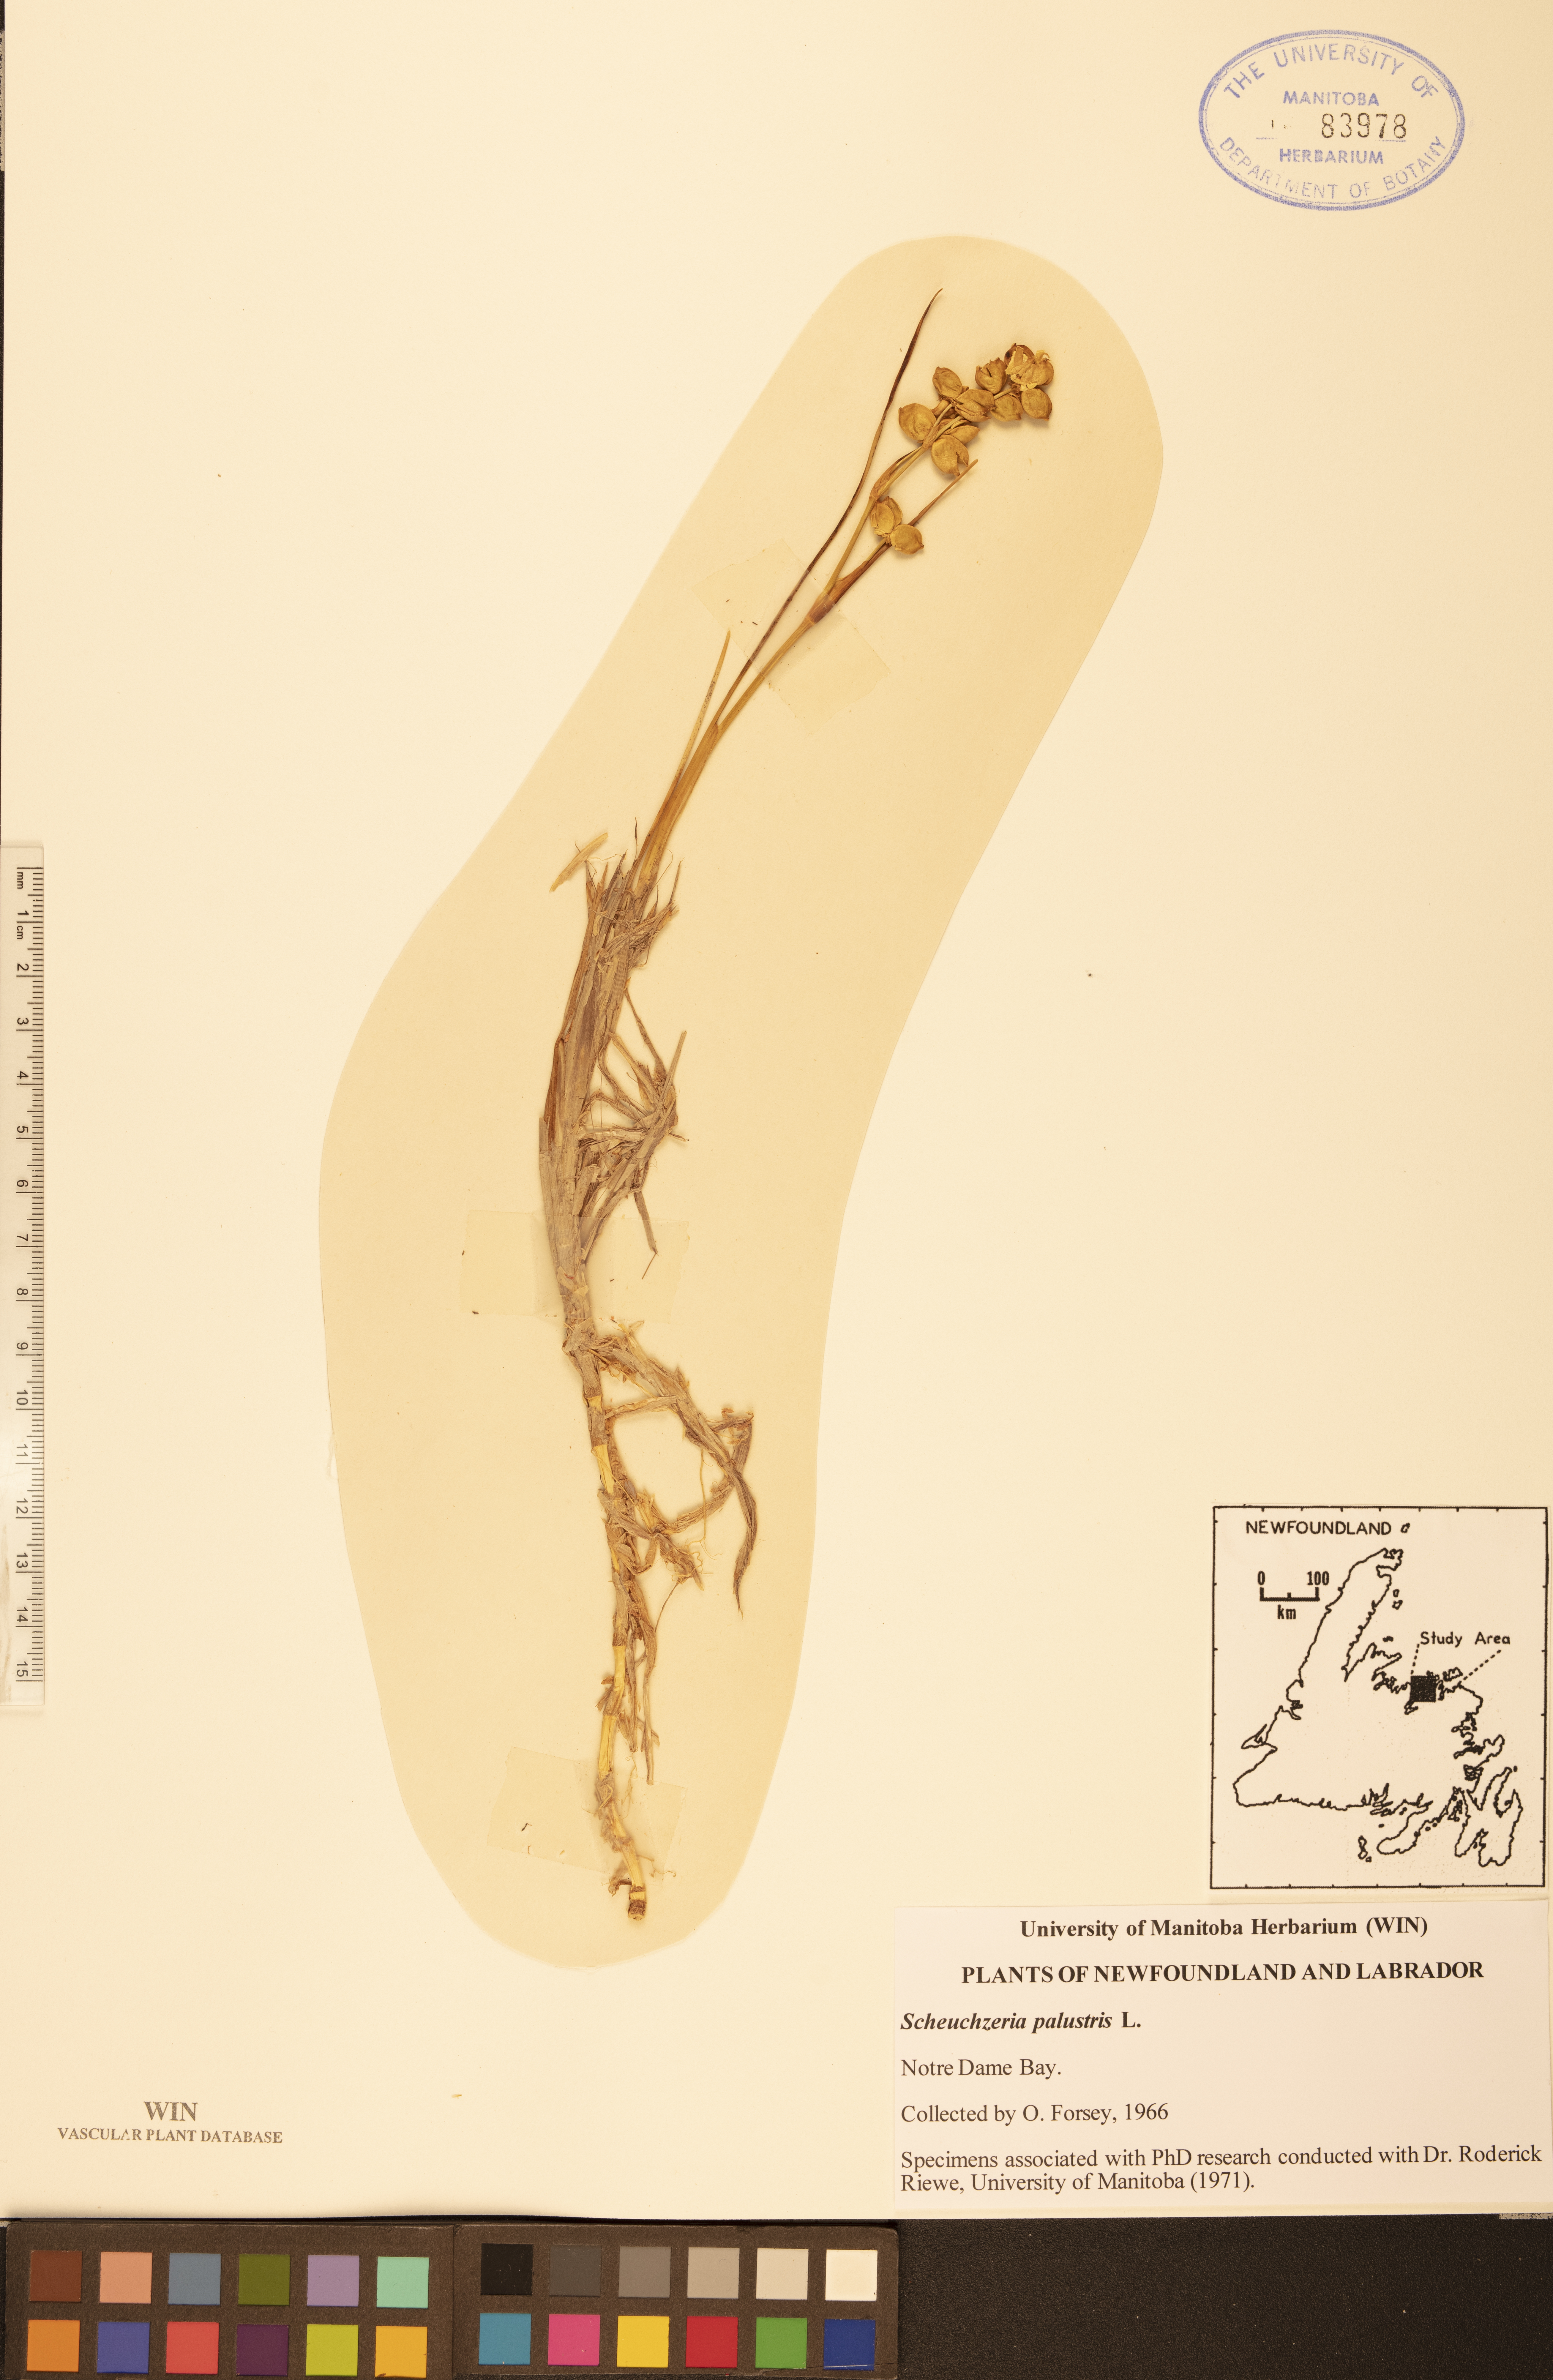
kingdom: Plantae
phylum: Tracheophyta
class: Liliopsida
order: Alismatales
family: Scheuchzeriaceae
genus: Scheuchzeria
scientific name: Scheuchzeria palustris
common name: Rannoch-rush
